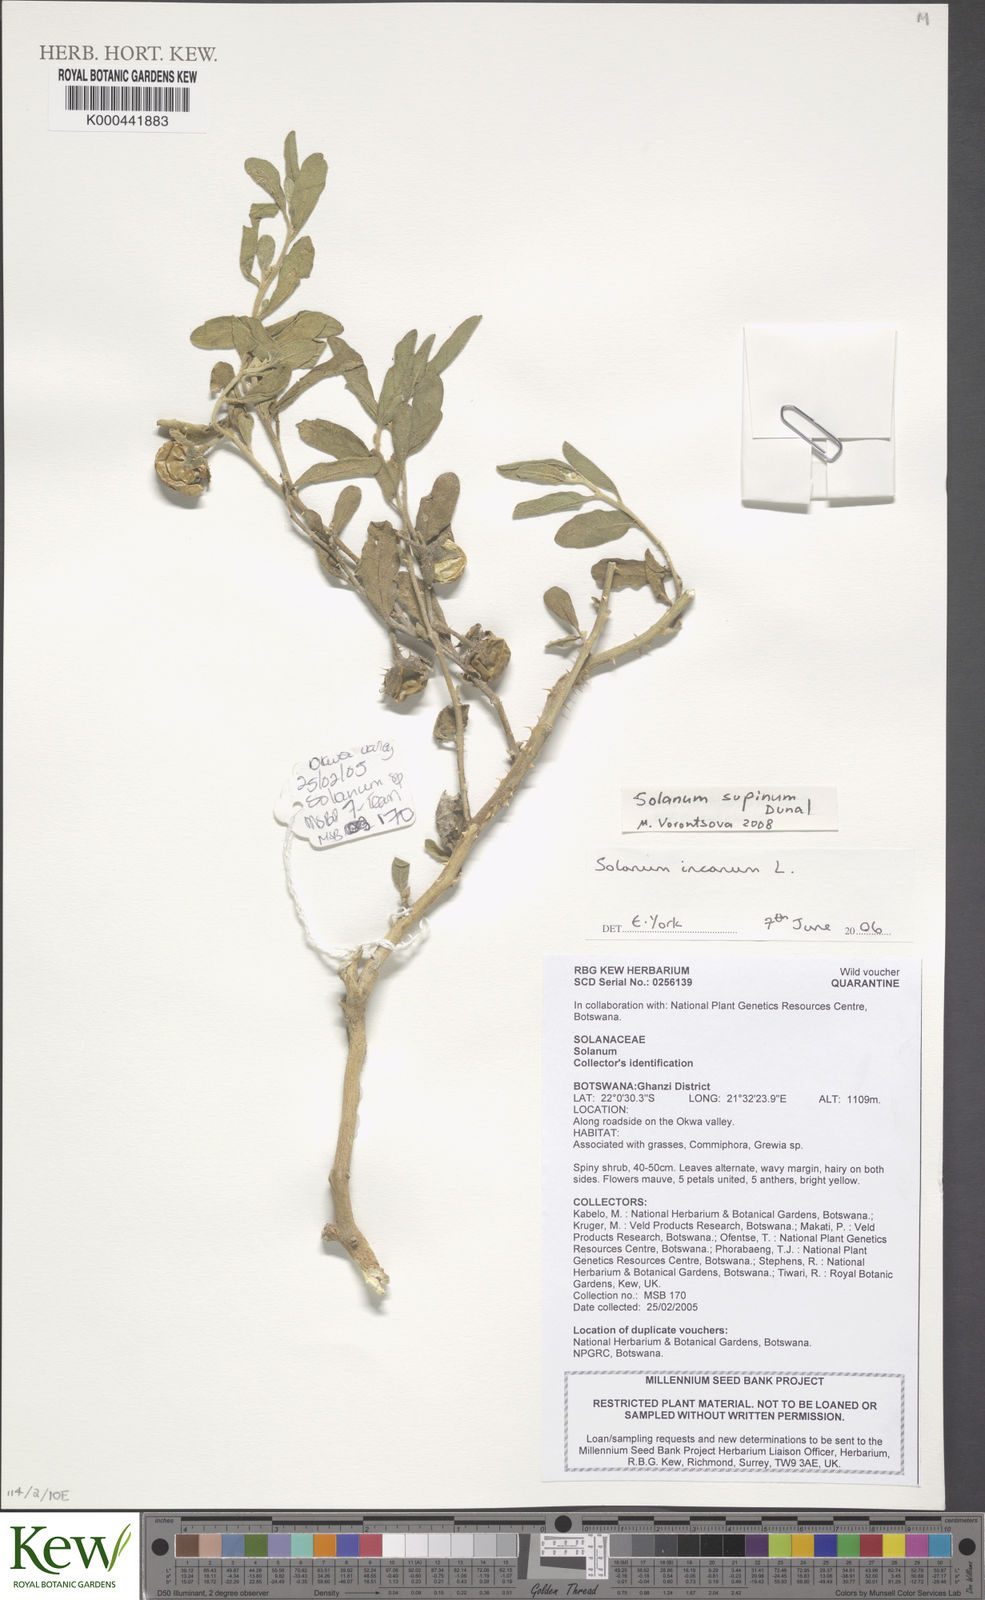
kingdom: Plantae
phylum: Tracheophyta
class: Magnoliopsida
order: Solanales
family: Solanaceae
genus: Solanum
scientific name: Solanum supinum
